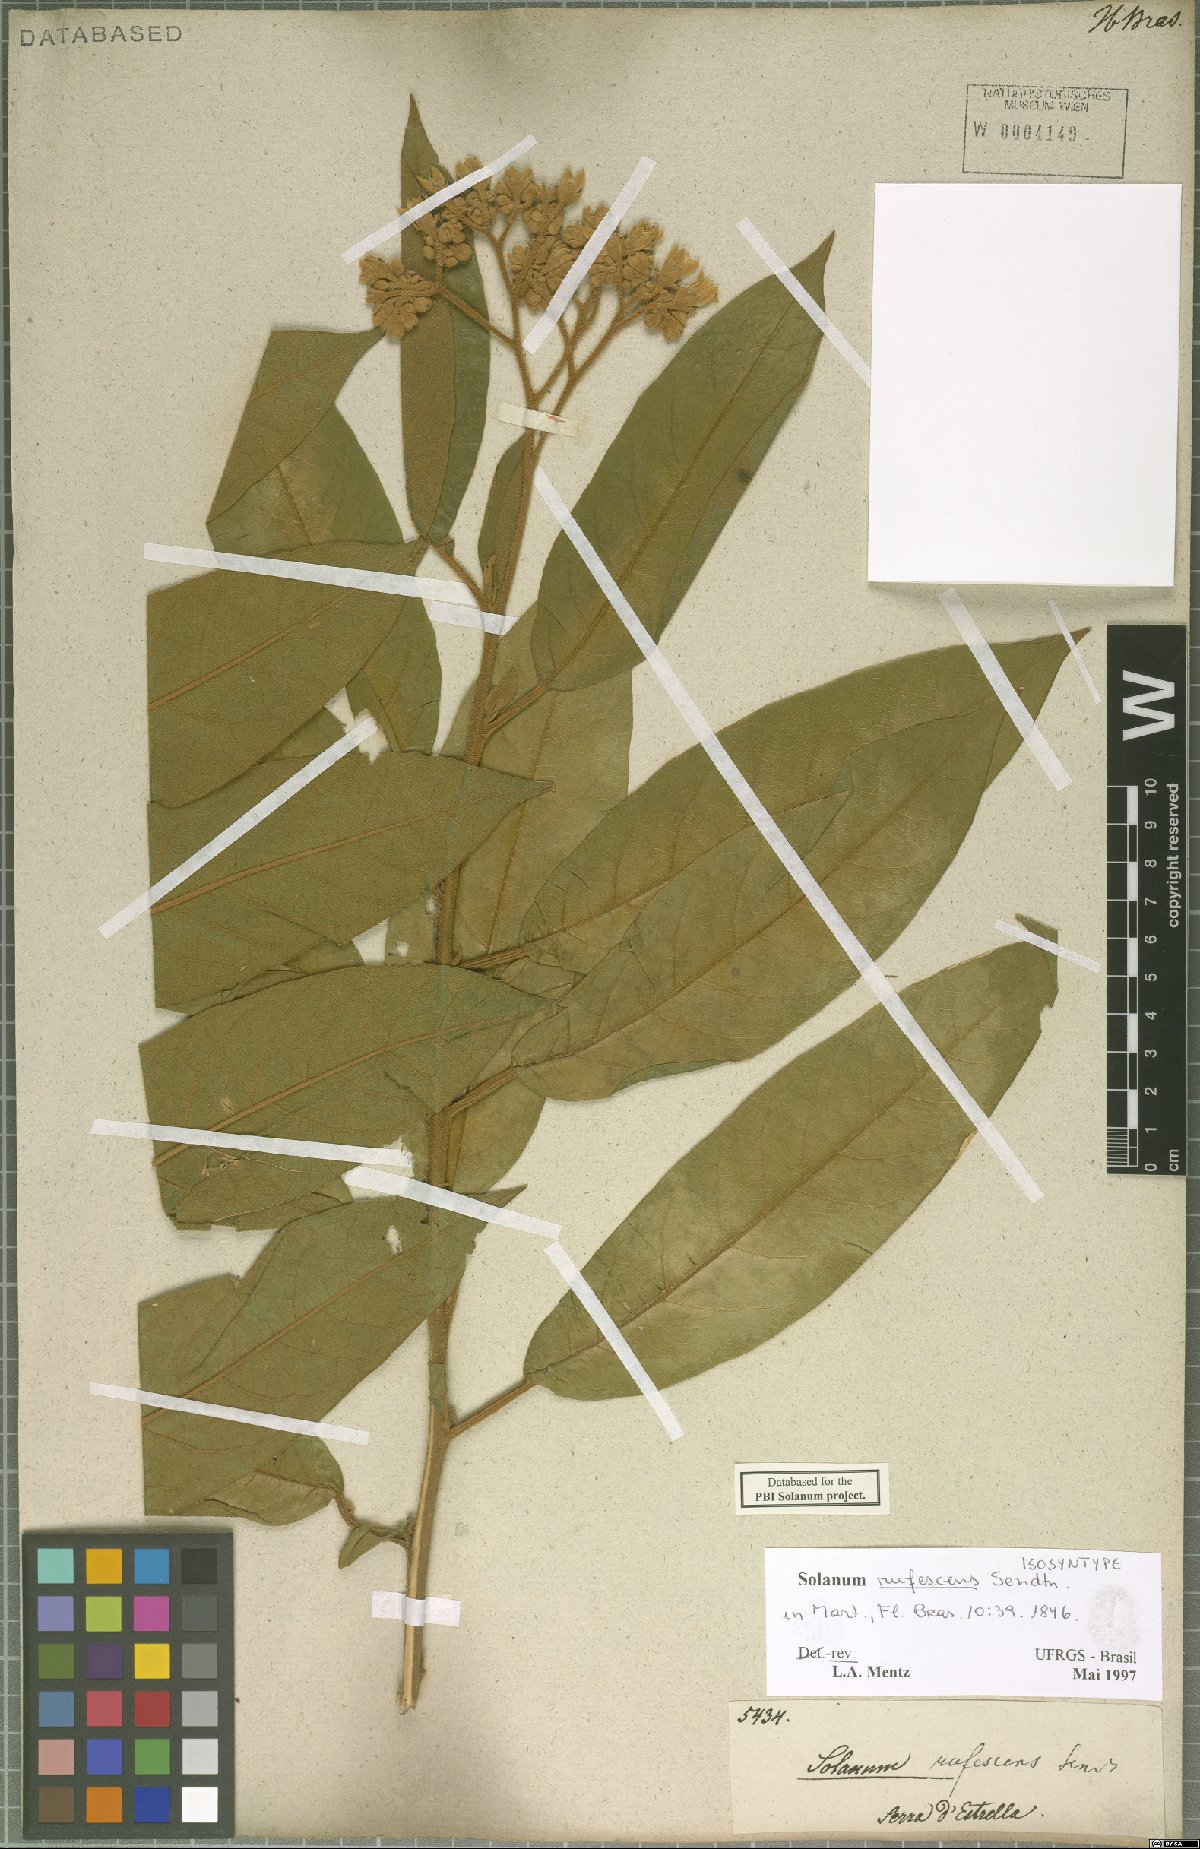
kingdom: Plantae
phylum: Tracheophyta
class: Magnoliopsida
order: Solanales
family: Solanaceae
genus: Solanum
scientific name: Solanum rufescens
